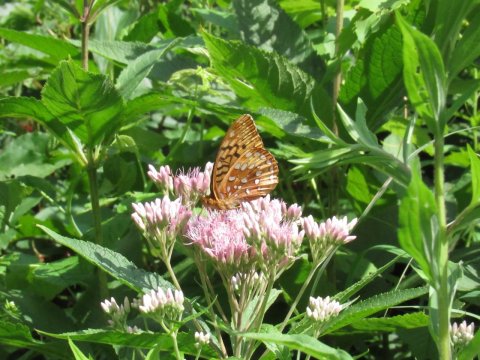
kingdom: Animalia
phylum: Arthropoda
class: Insecta
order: Lepidoptera
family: Nymphalidae
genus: Speyeria
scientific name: Speyeria cybele
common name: Great Spangled Fritillary
